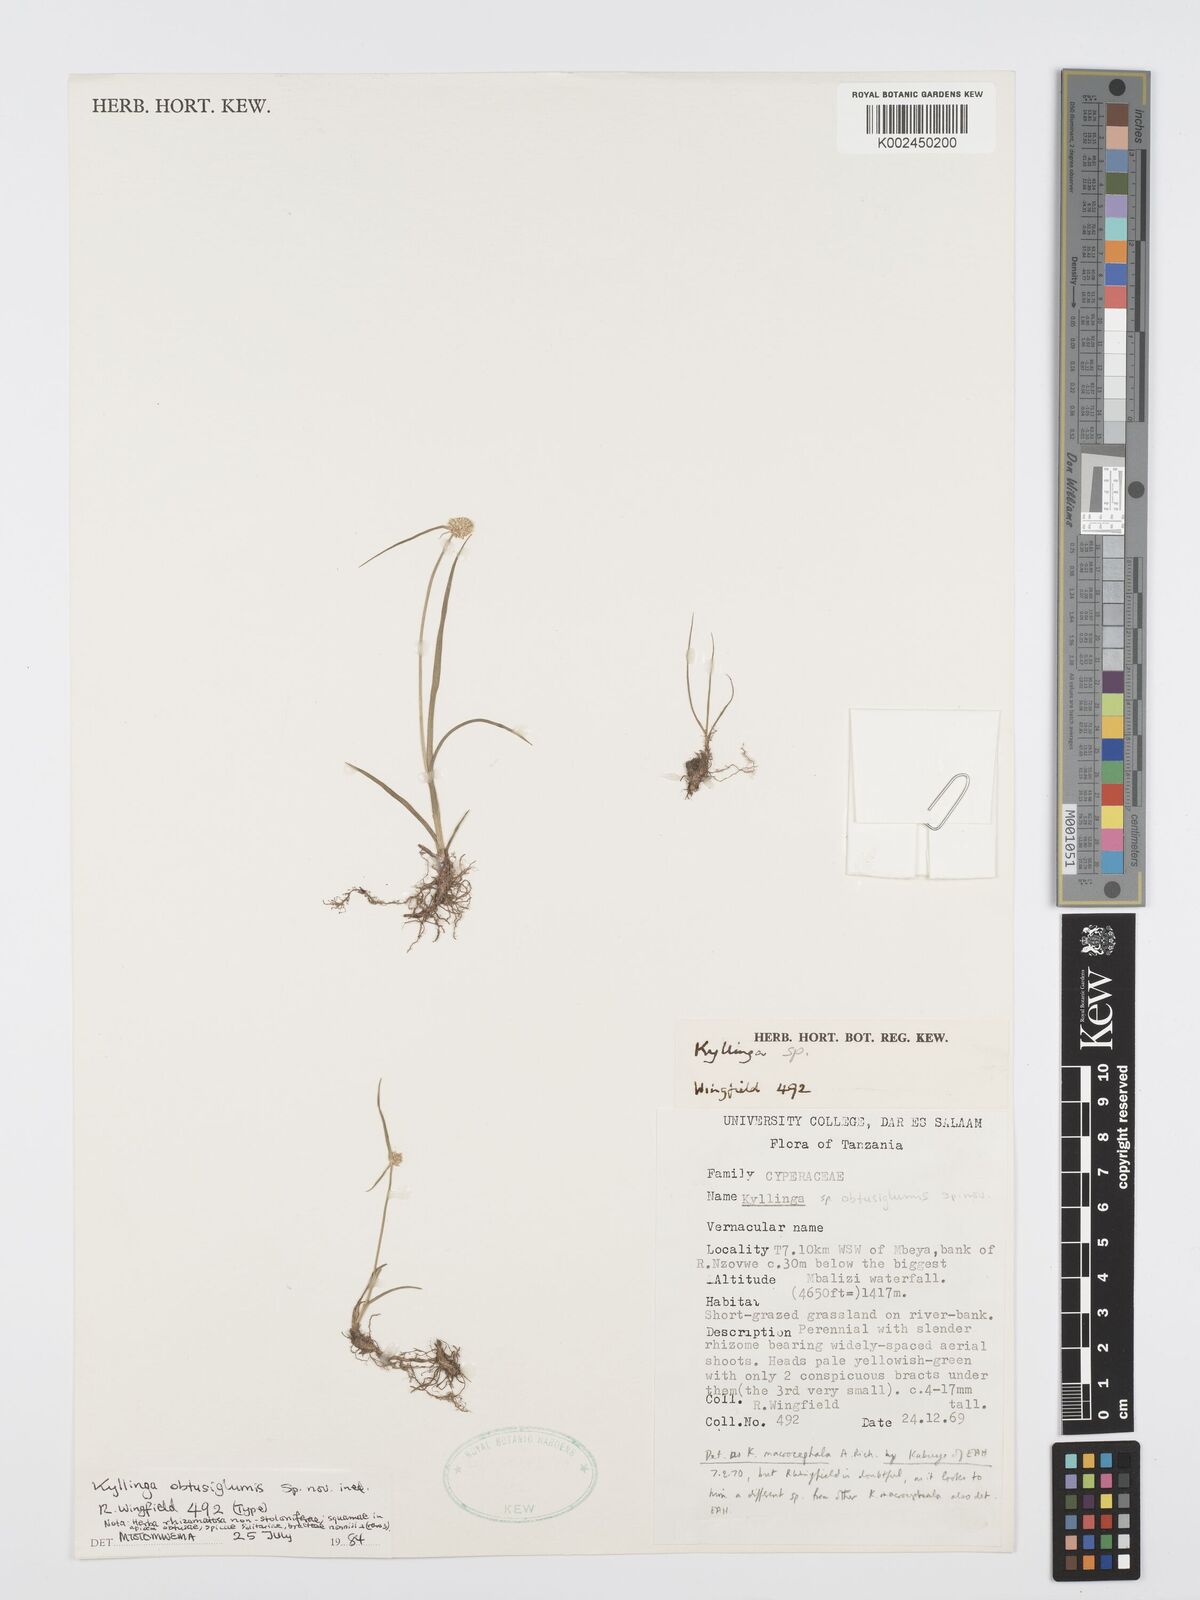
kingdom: Plantae
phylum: Tracheophyta
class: Liliopsida
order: Poales
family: Cyperaceae
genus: Cyperus
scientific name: Cyperus
